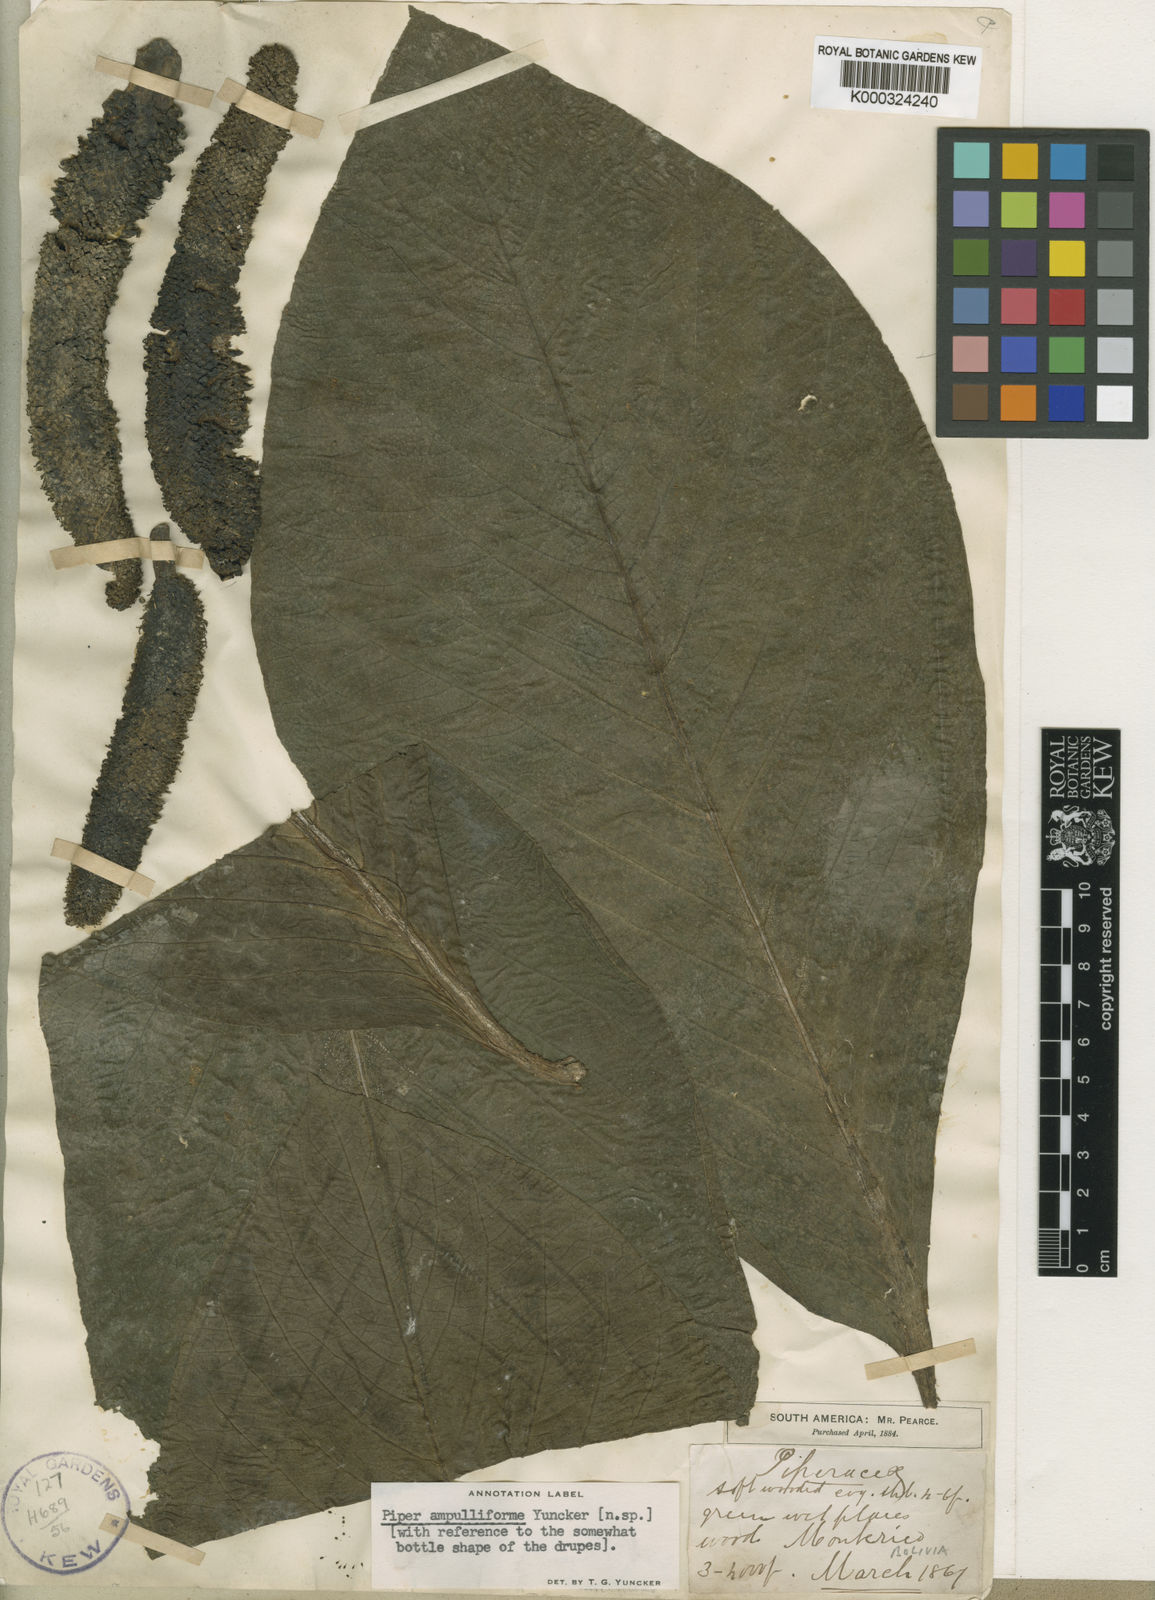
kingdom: Plantae
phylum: Tracheophyta
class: Magnoliopsida
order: Piperales
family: Piperaceae
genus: Piper
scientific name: Piper
